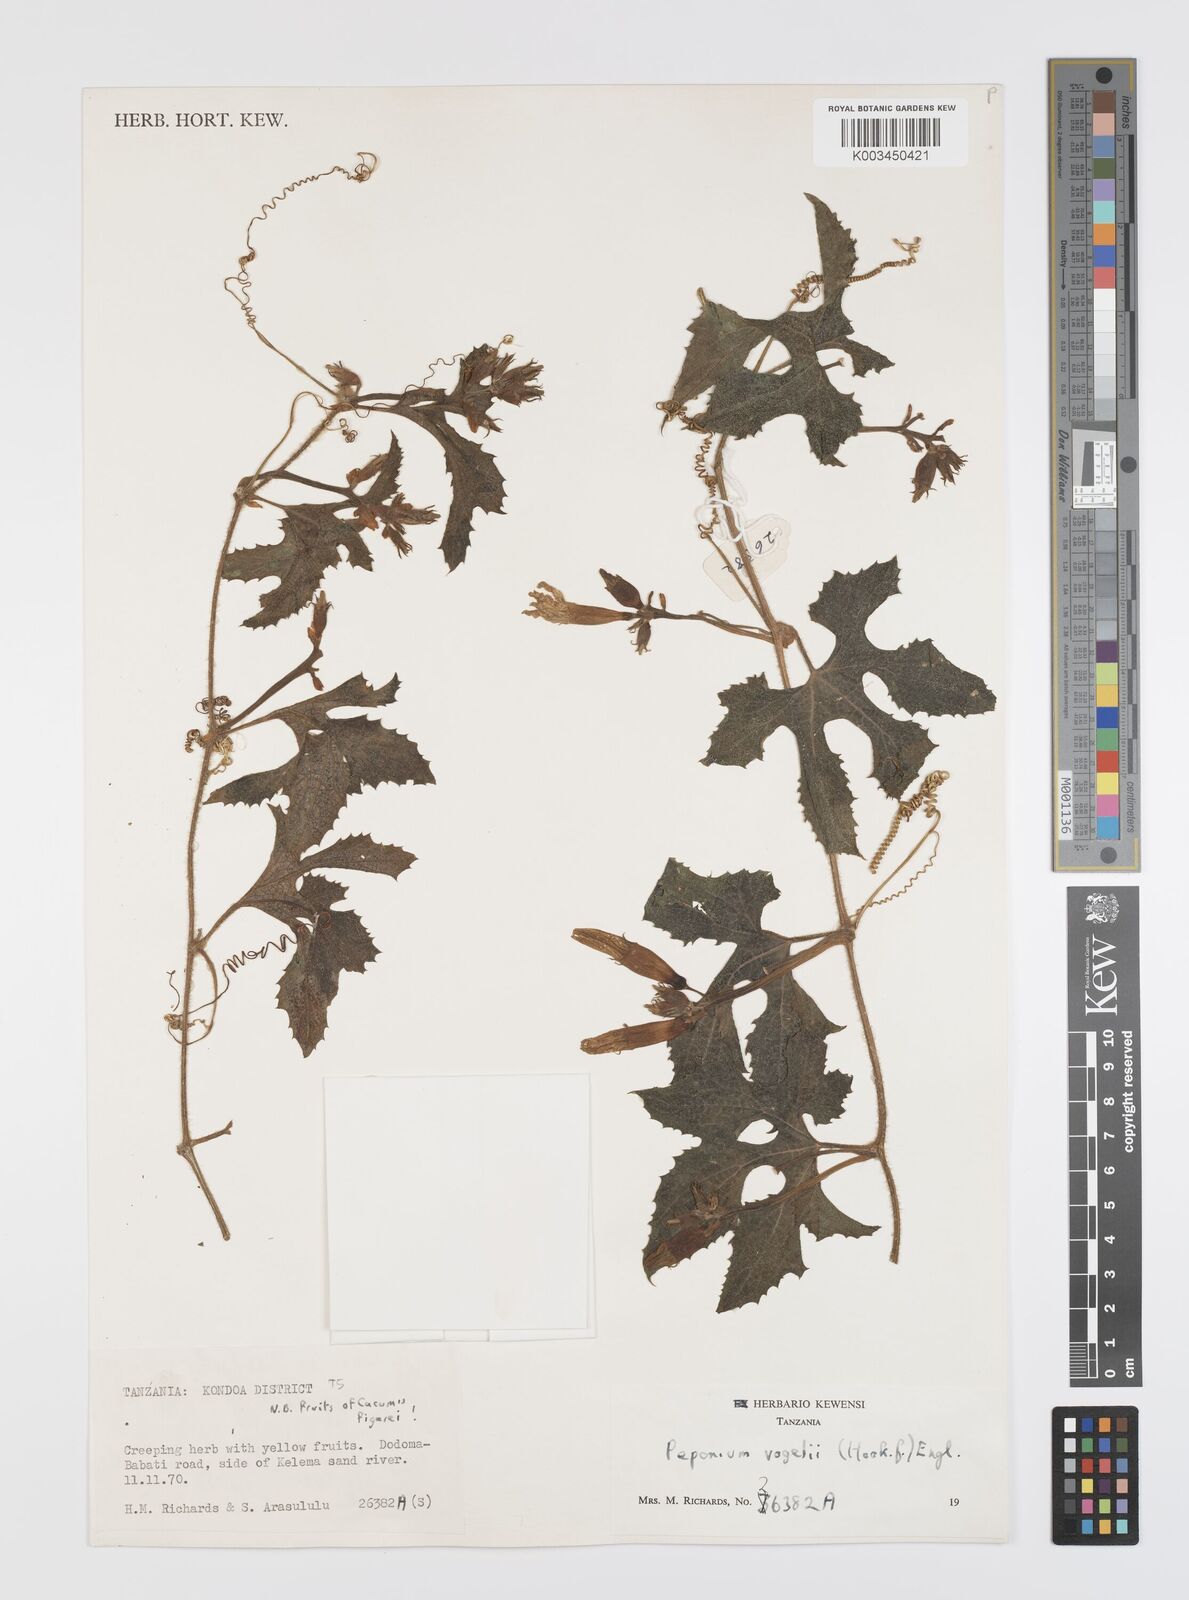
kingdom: Plantae
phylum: Tracheophyta
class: Magnoliopsida
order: Cucurbitales
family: Cucurbitaceae
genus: Peponium
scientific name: Peponium vogelii
